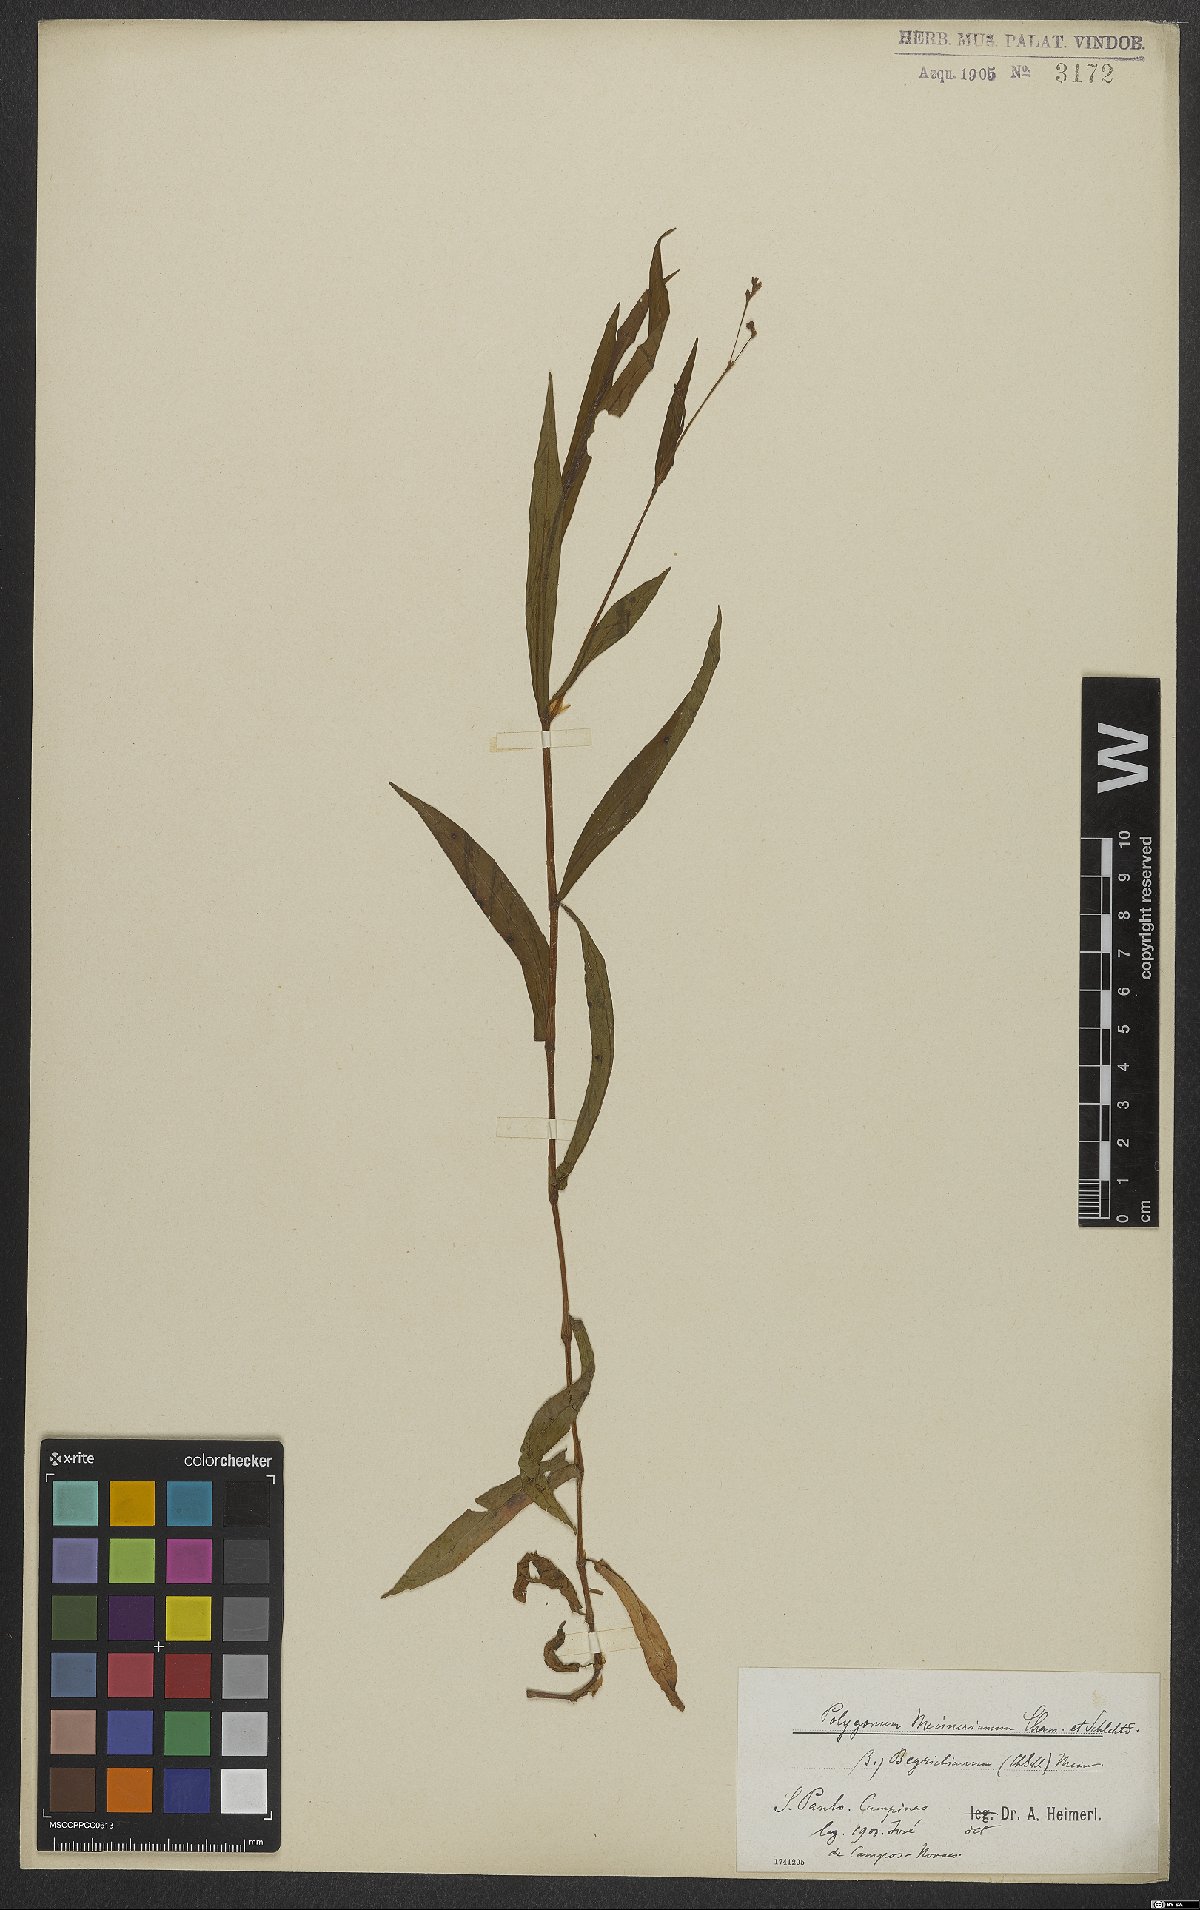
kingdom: Plantae
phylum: Tracheophyta
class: Magnoliopsida
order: Caryophyllales
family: Polygonaceae
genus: Persicaria
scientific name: Persicaria meisneriana
